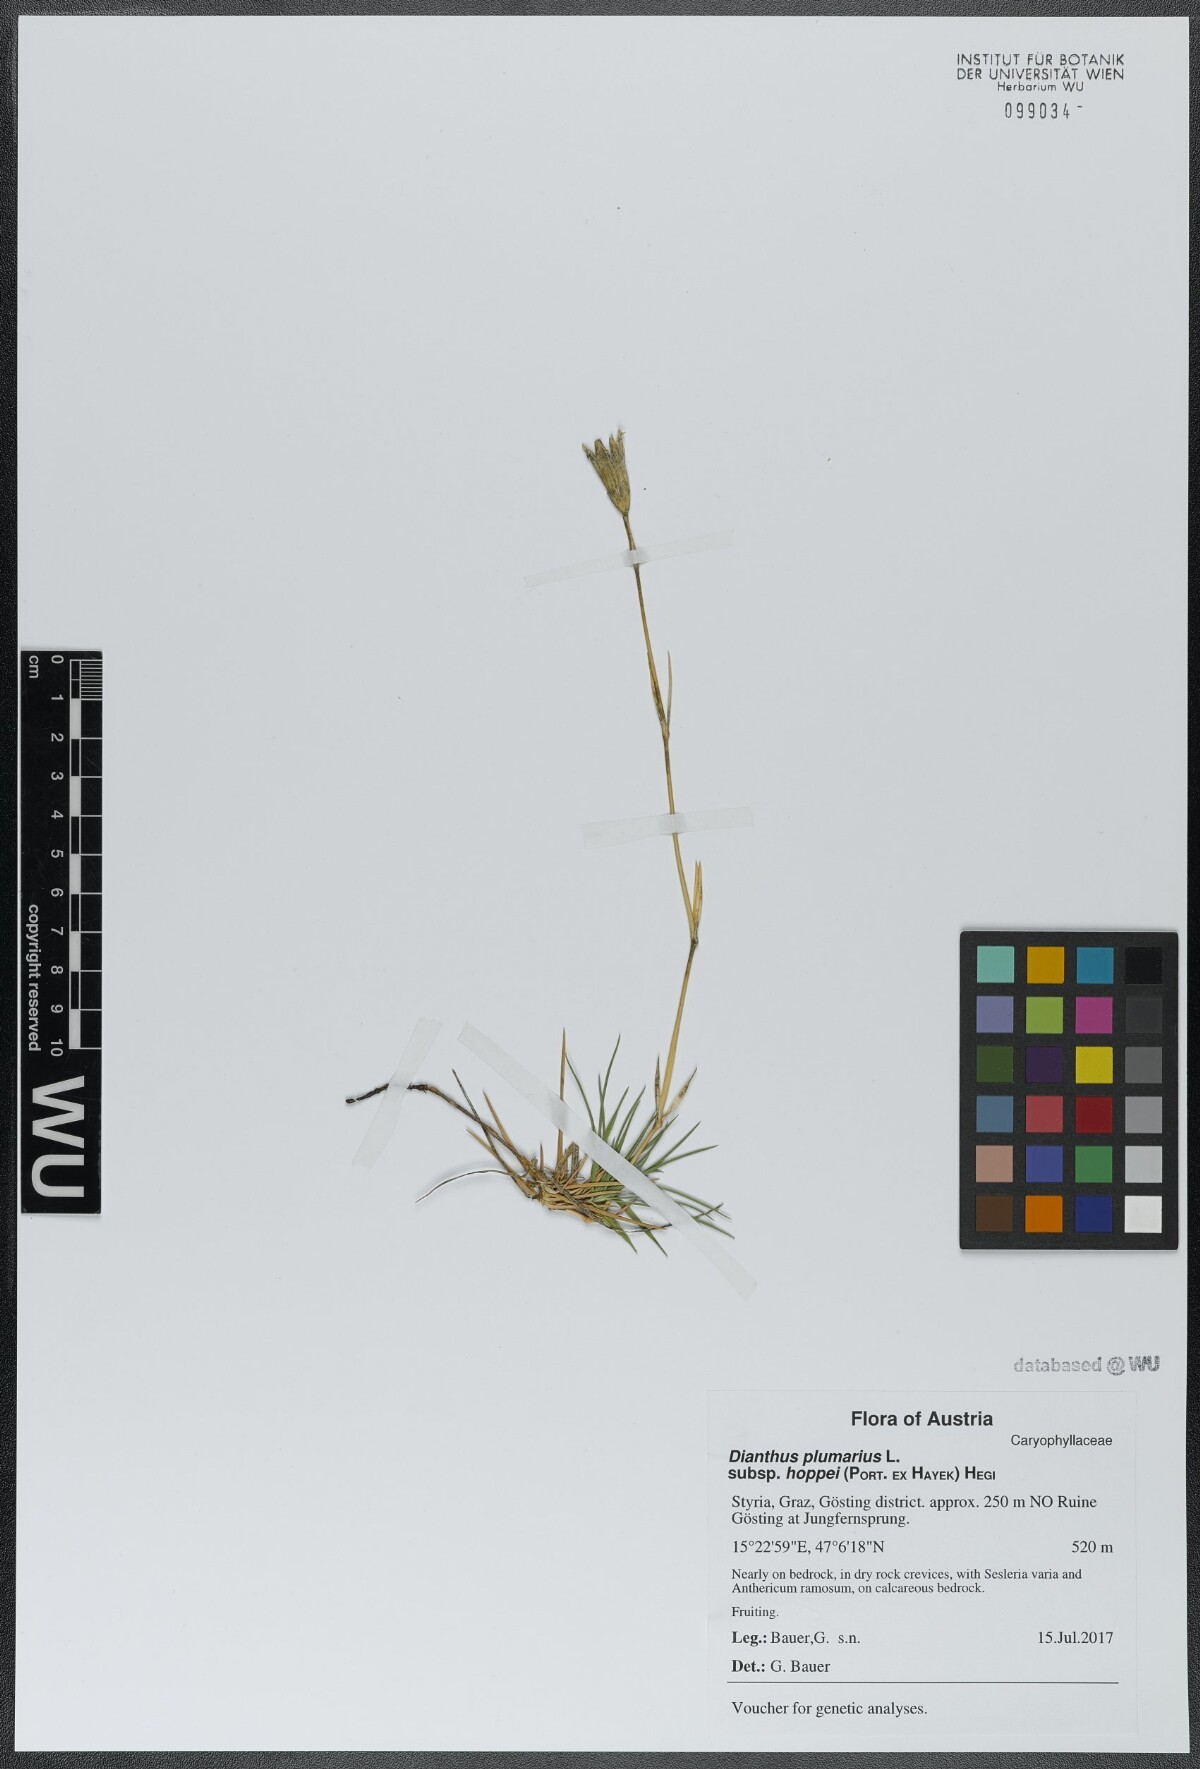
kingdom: Plantae
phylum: Tracheophyta
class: Magnoliopsida
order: Caryophyllales
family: Caryophyllaceae
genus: Dianthus
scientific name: Dianthus plumarius
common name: Pink
